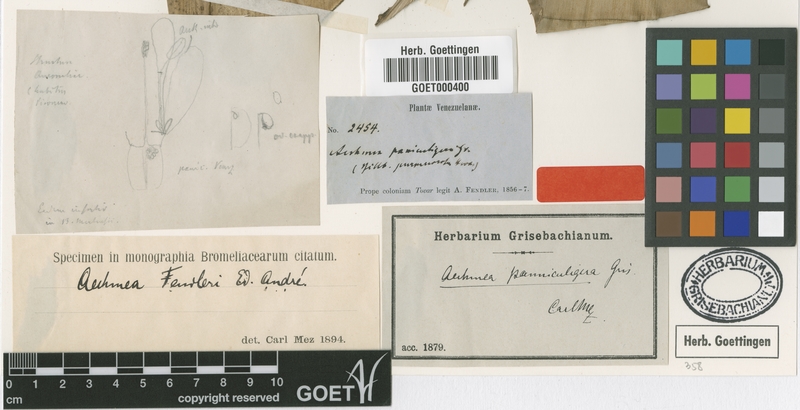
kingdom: Plantae
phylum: Tracheophyta
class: Liliopsida
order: Poales
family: Bromeliaceae
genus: Aechmea
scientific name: Aechmea fendleri
